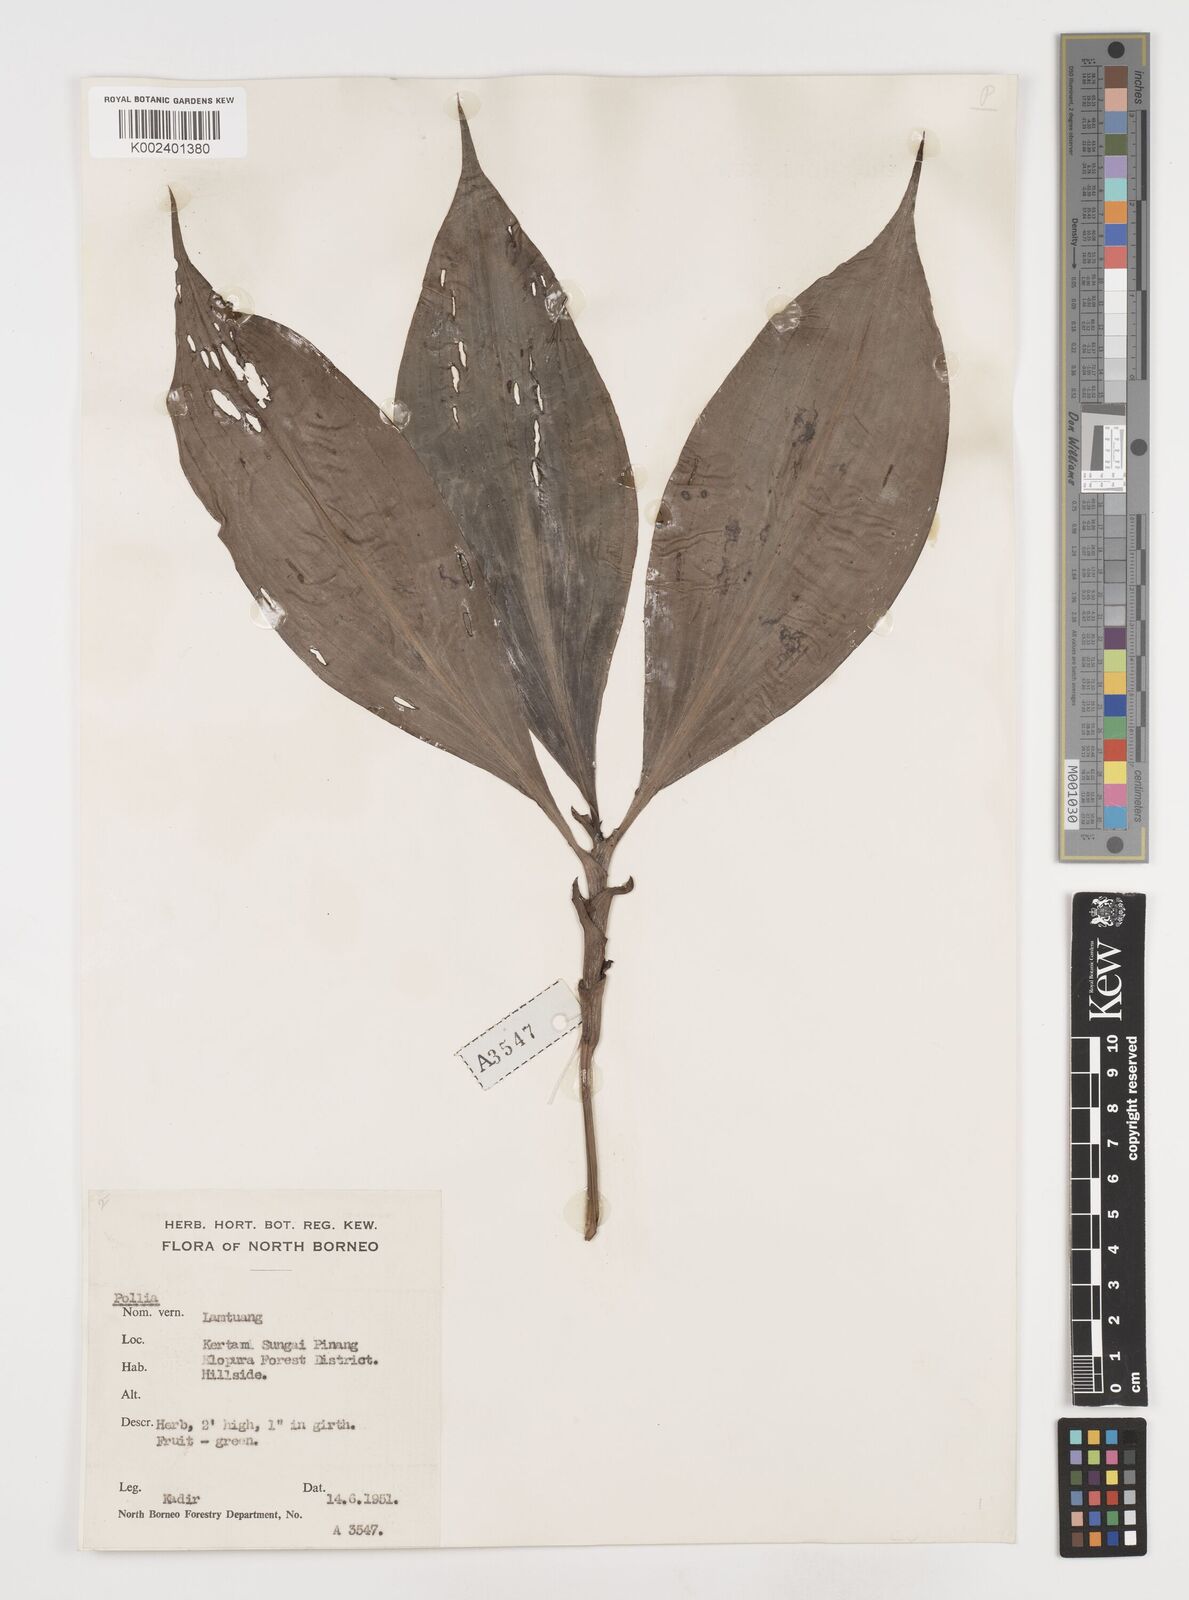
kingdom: Plantae
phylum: Tracheophyta
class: Liliopsida
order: Commelinales
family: Commelinaceae
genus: Pollia
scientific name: Pollia
